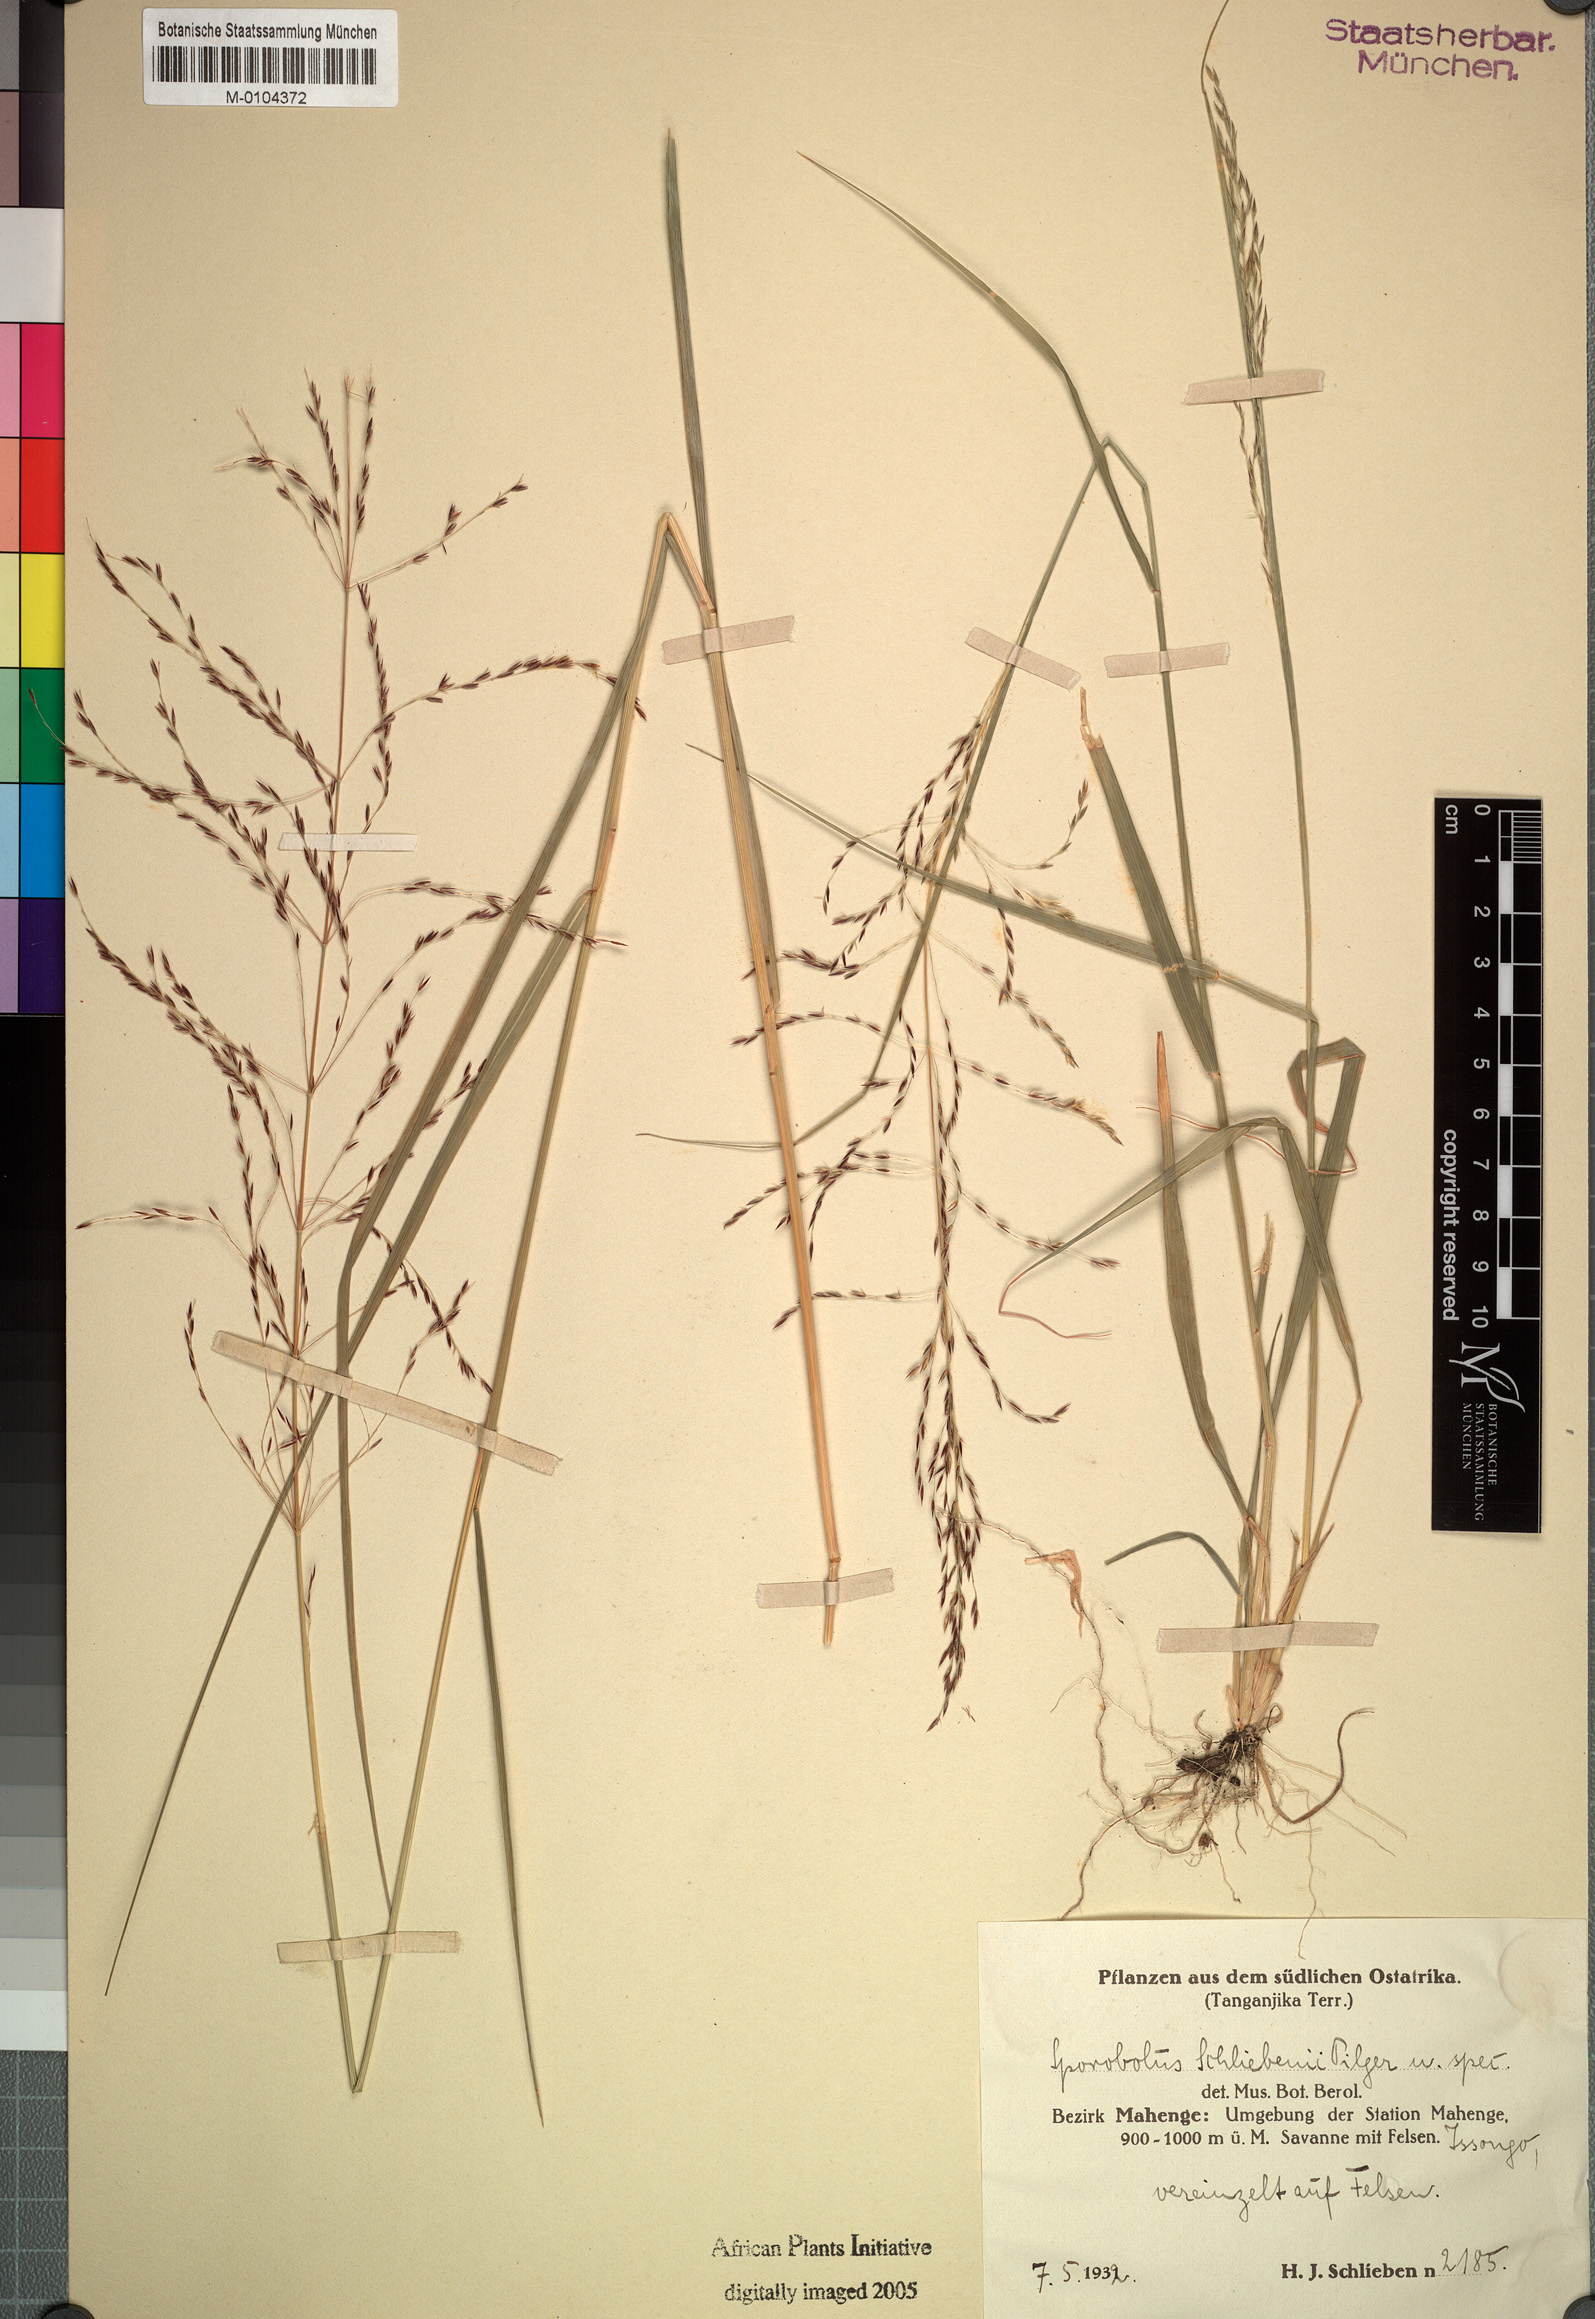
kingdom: Plantae
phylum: Tracheophyta
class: Liliopsida
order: Poales
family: Poaceae
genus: Sporobolus
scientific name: Sporobolus sanguineus
